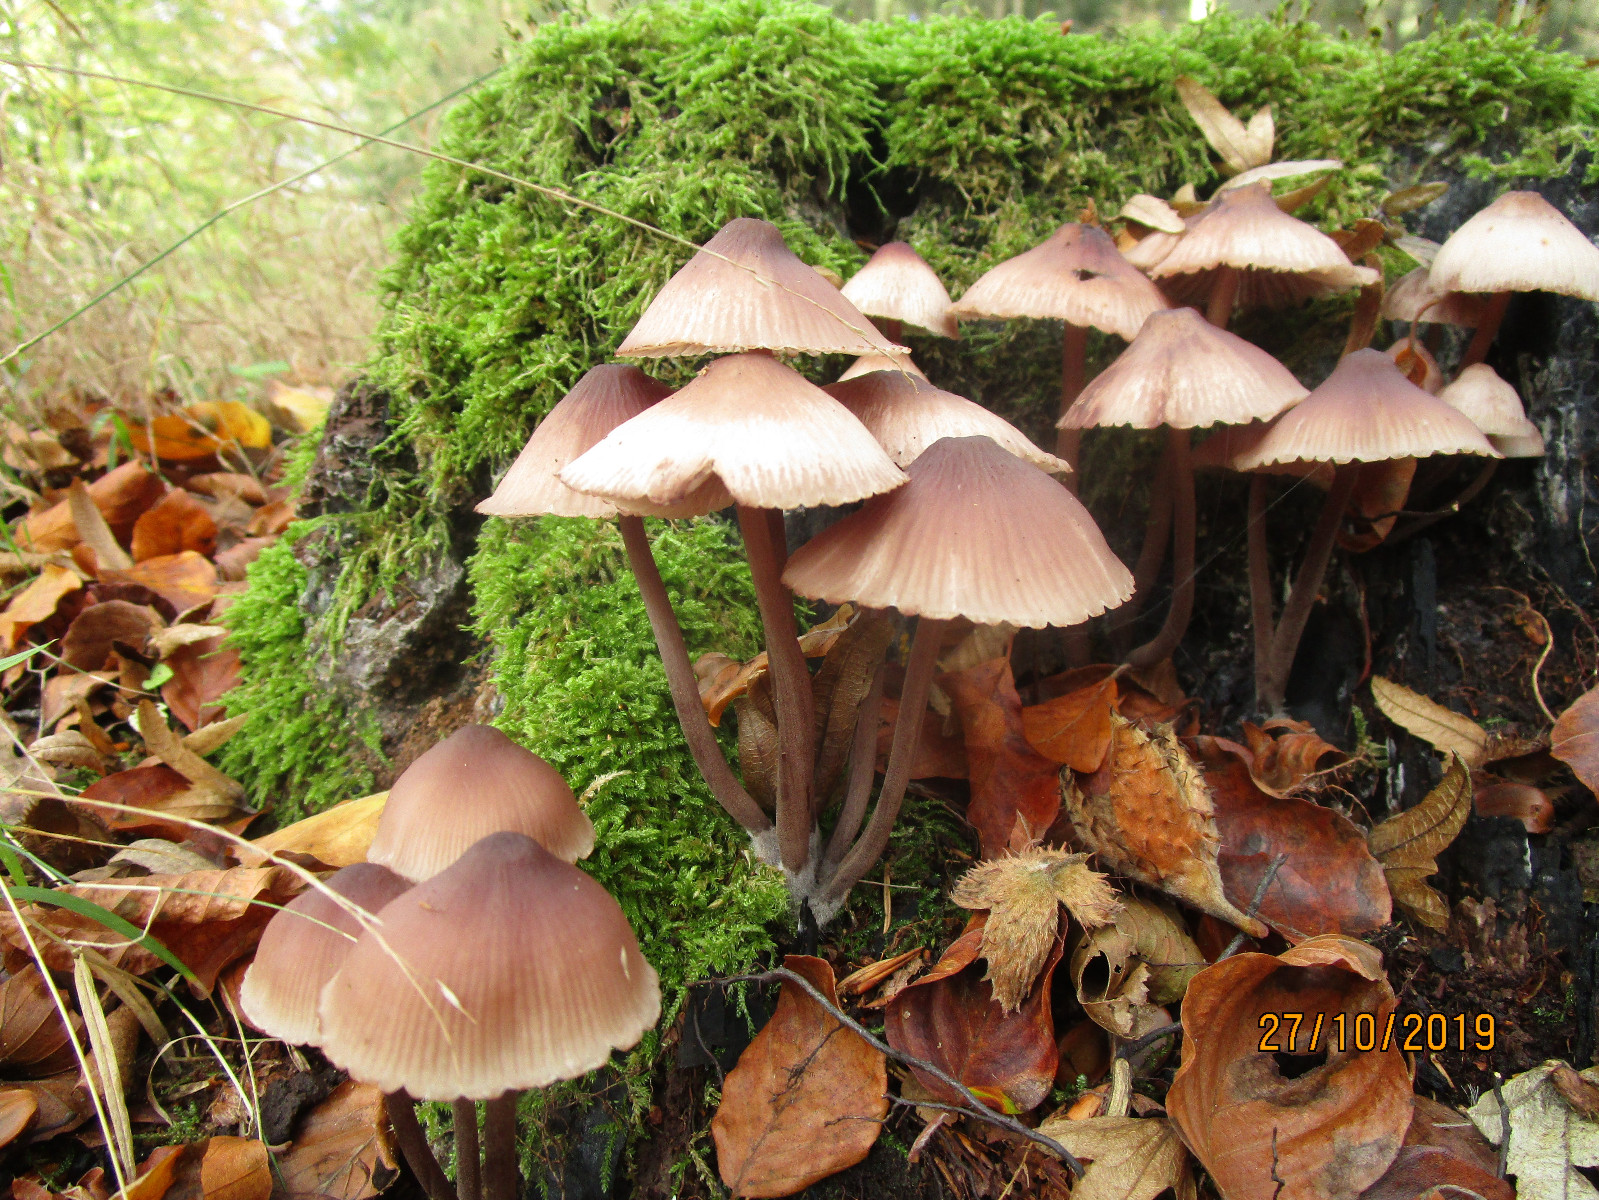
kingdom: Fungi
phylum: Basidiomycota
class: Agaricomycetes
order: Agaricales
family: Mycenaceae
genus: Mycena
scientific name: Mycena haematopus
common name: blødende huesvamp
